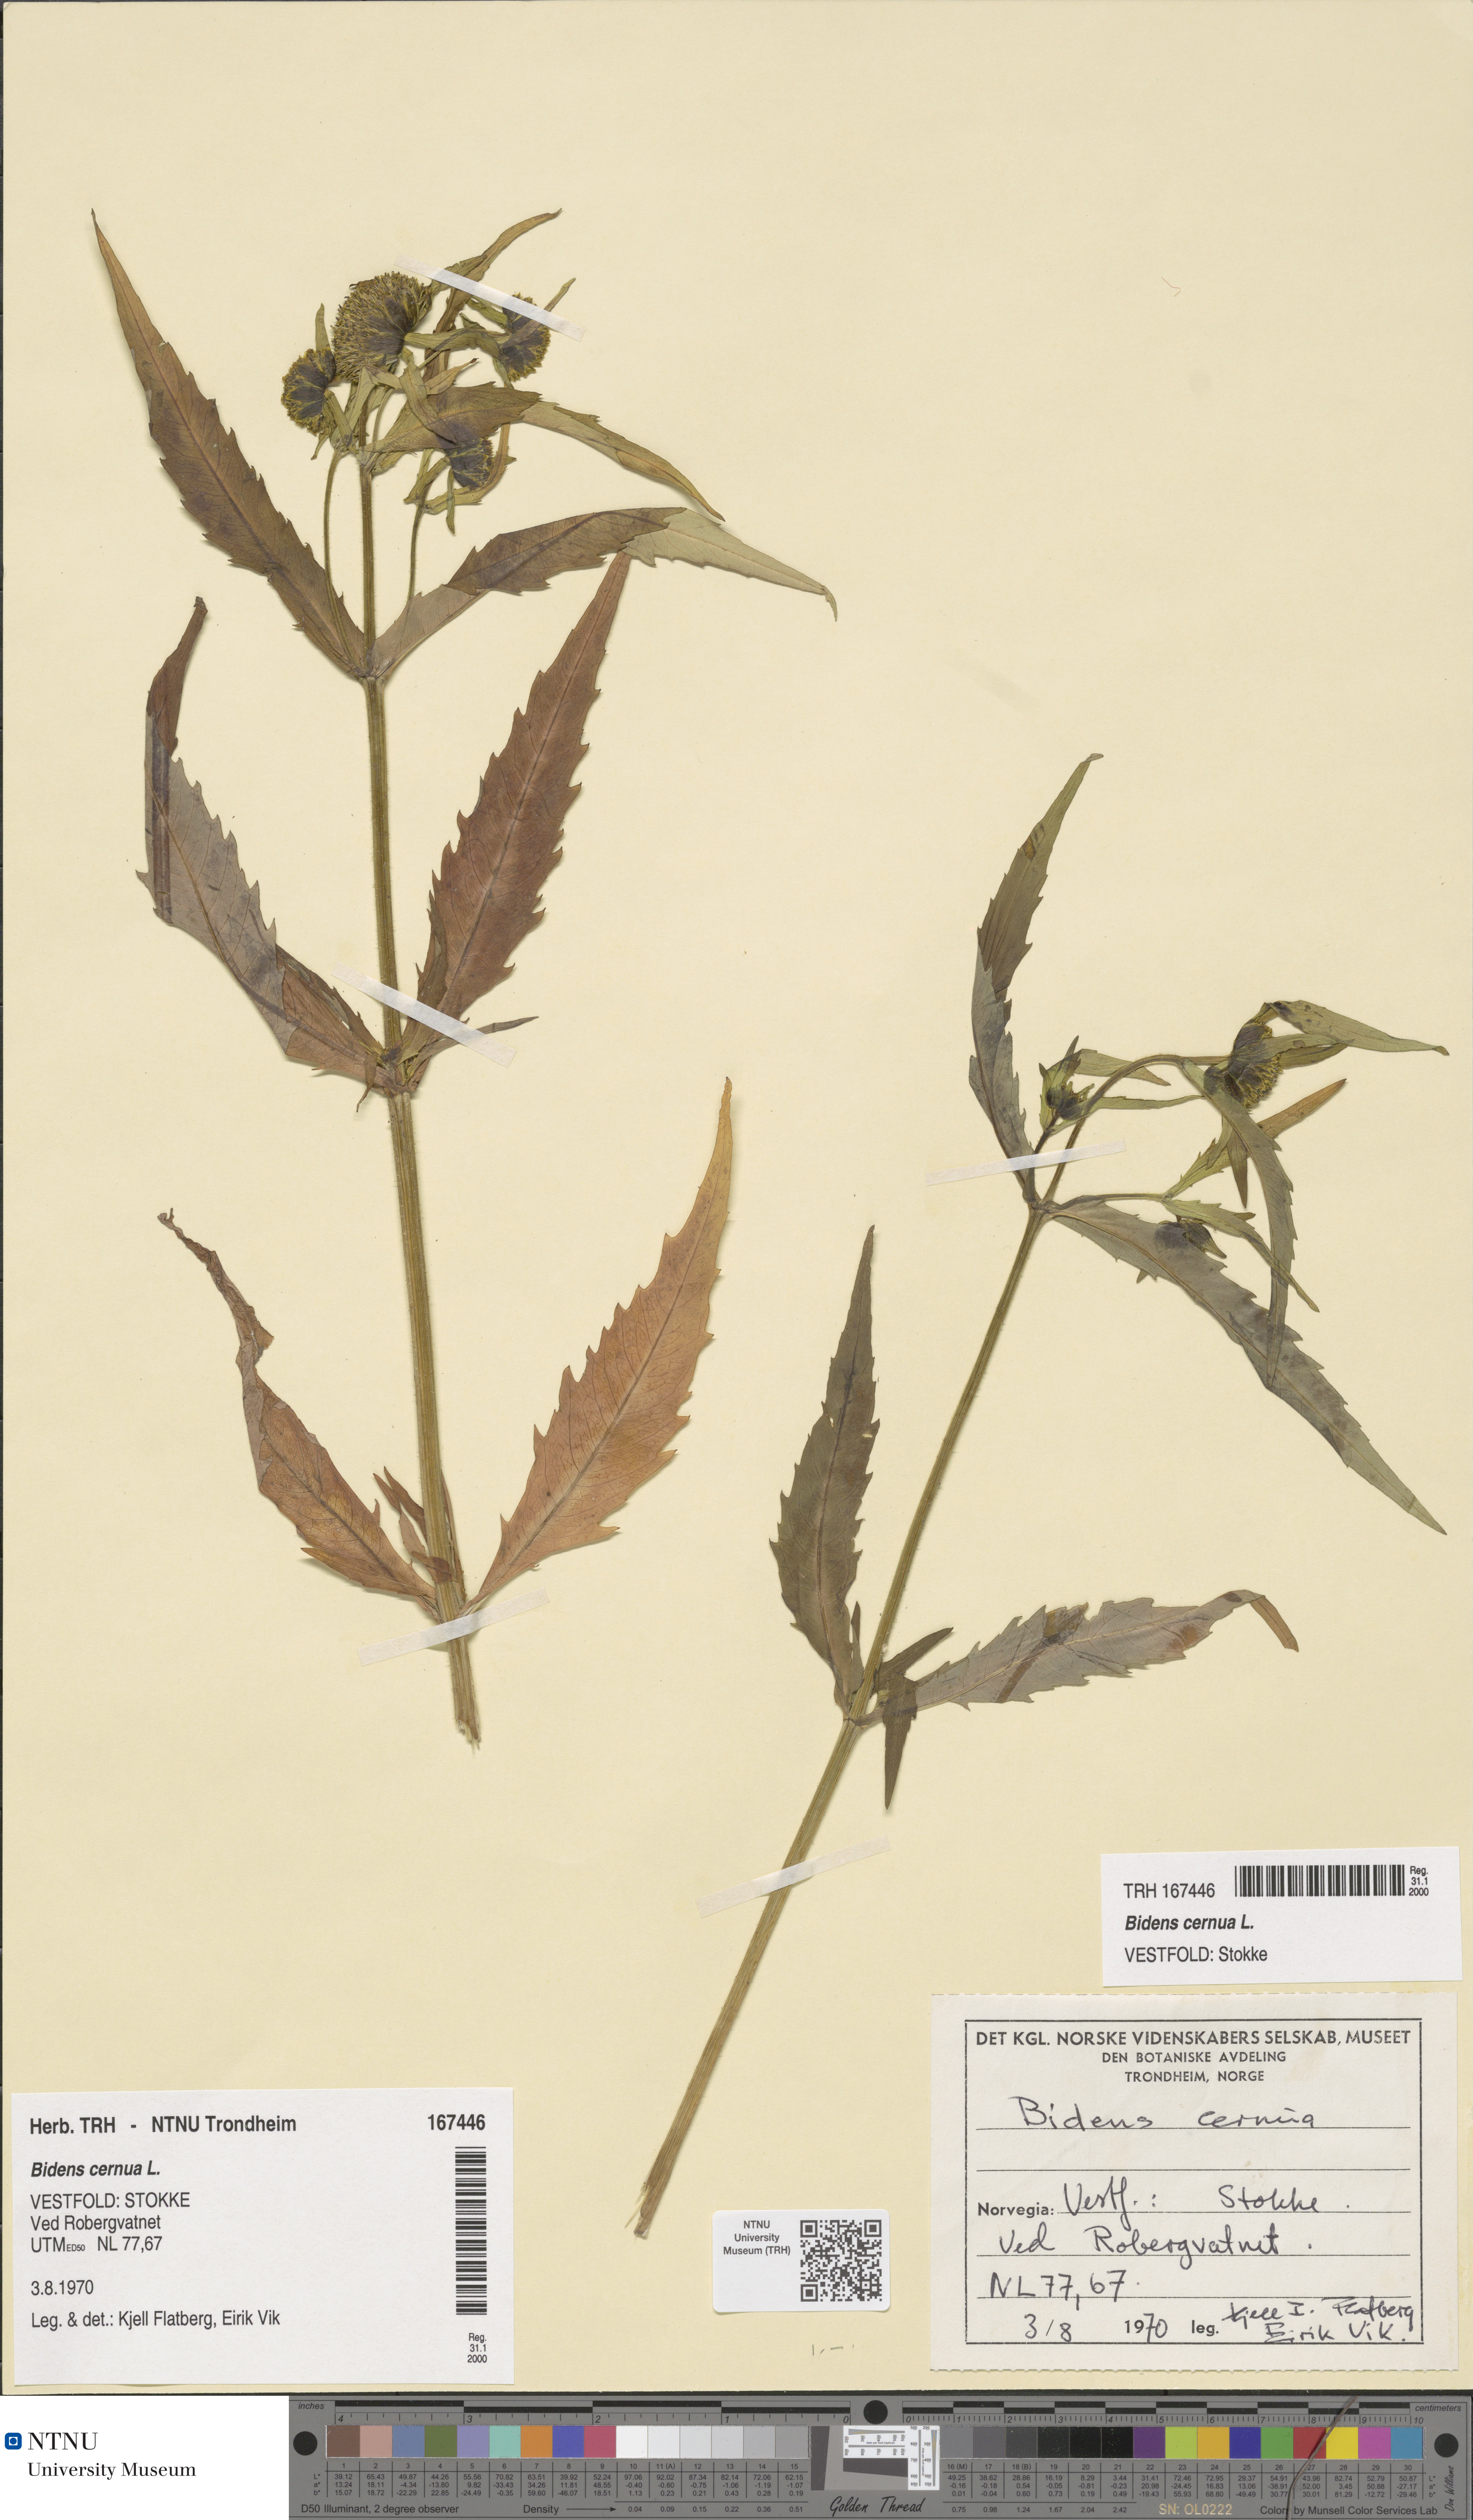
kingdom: Plantae
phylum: Tracheophyta
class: Magnoliopsida
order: Asterales
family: Asteraceae
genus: Bidens
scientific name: Bidens cernua
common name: Nodding bur-marigold
